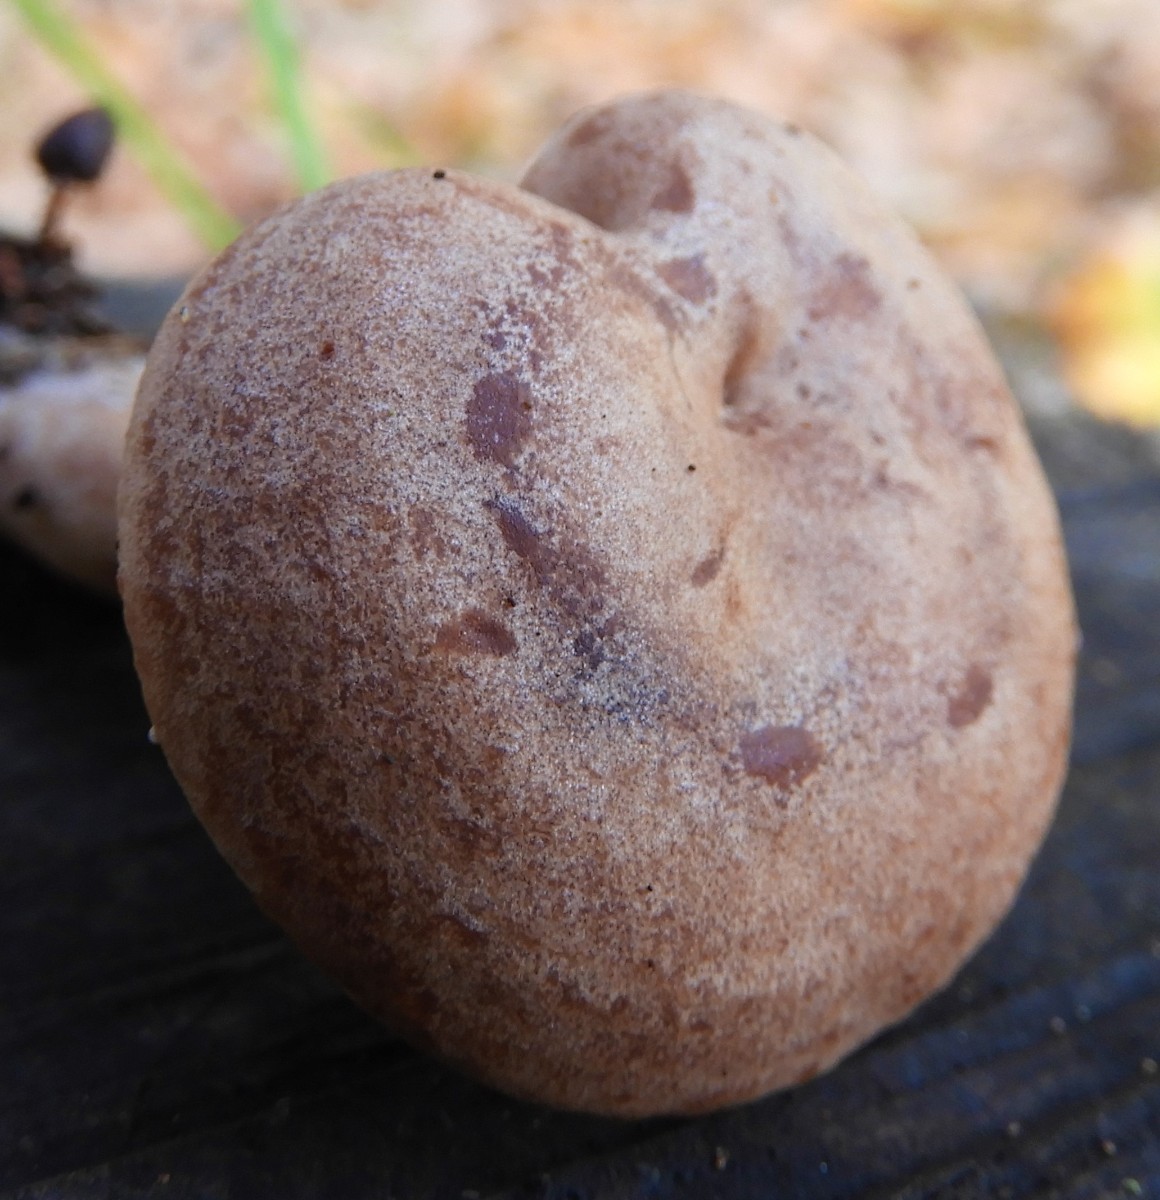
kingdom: Fungi
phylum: Basidiomycota
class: Agaricomycetes
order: Russulales
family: Russulaceae
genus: Lactarius
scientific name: Lactarius quietus
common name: ege-mælkehat
